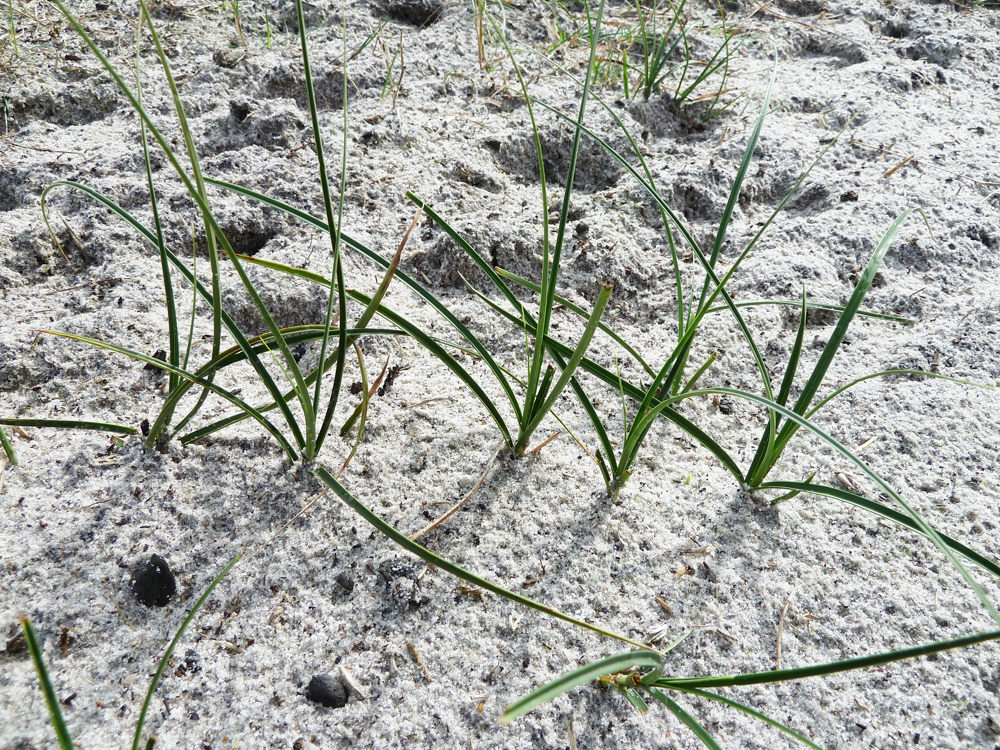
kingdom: Plantae
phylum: Tracheophyta
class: Liliopsida
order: Poales
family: Cyperaceae
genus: Carex
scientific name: Carex arenaria
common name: Sand sedge
